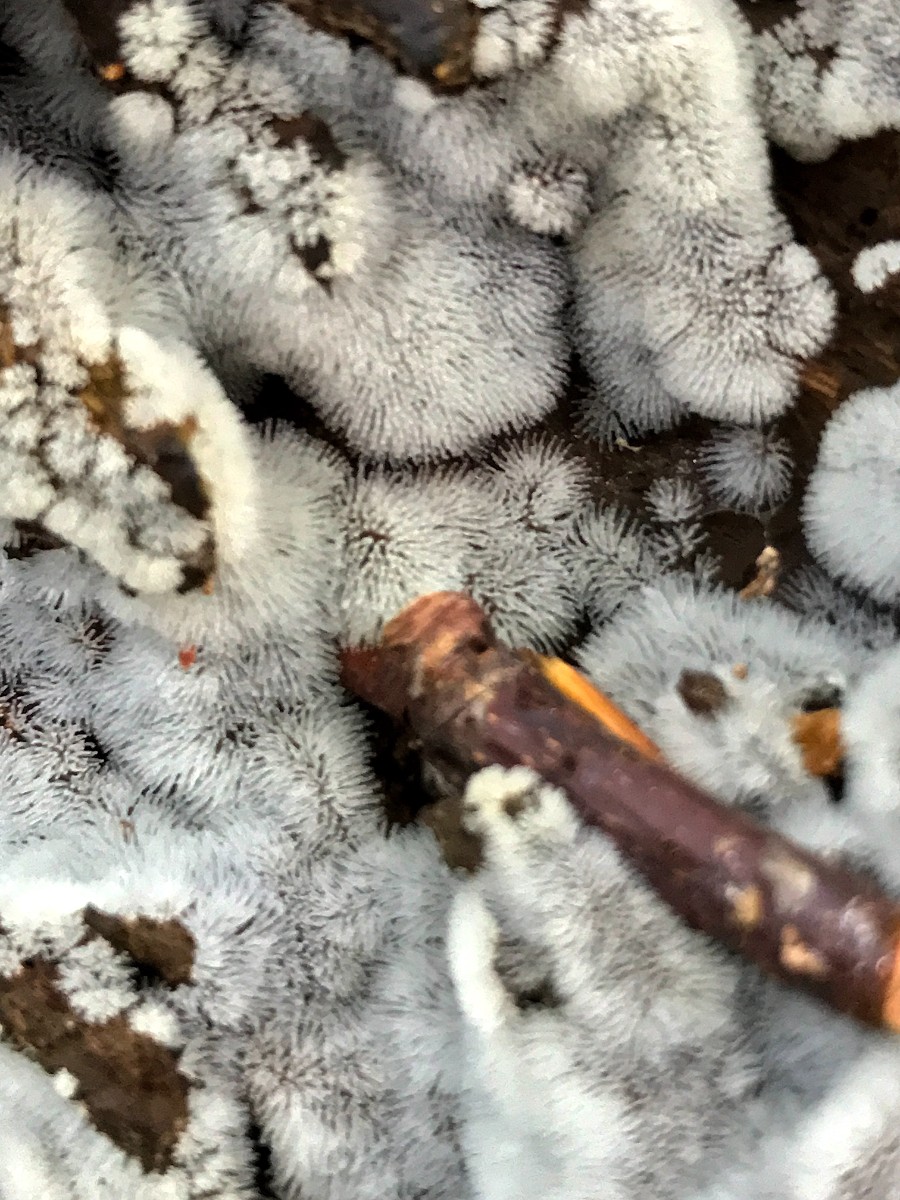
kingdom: Protozoa
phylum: Mycetozoa
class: Protosteliomycetes
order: Ceratiomyxales
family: Ceratiomyxaceae
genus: Ceratiomyxa
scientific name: Ceratiomyxa fruticulosa
